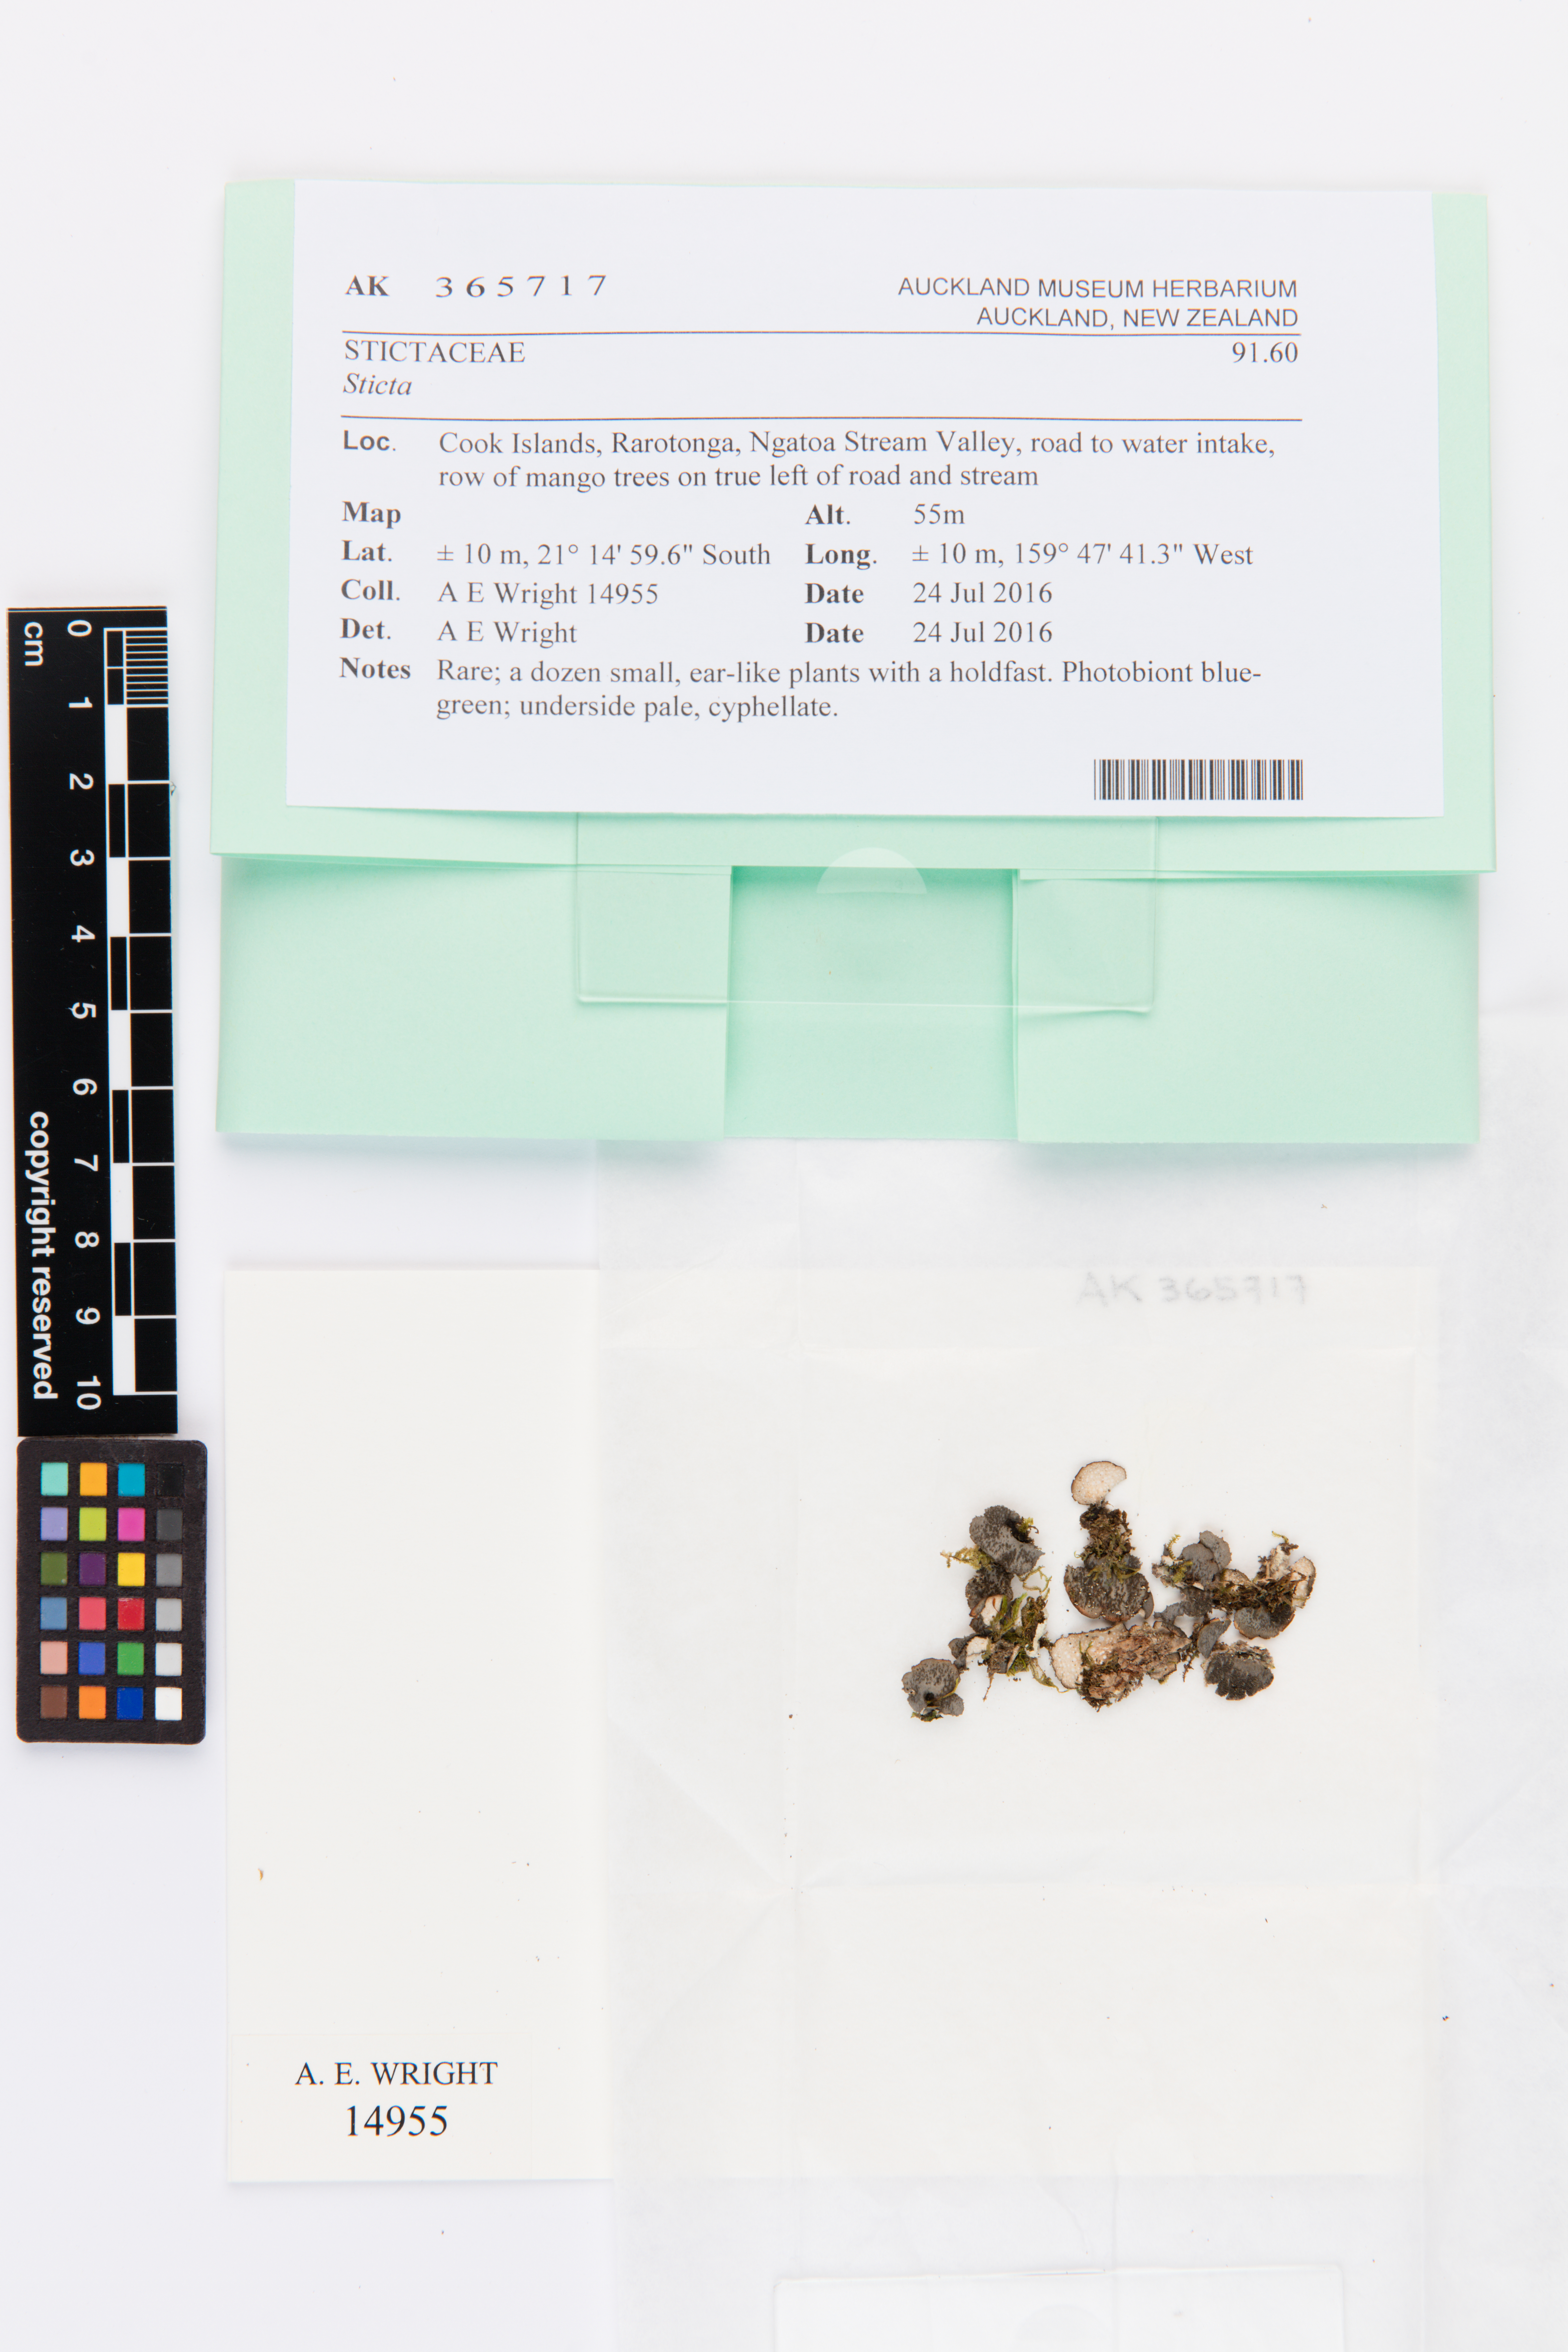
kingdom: Fungi
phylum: Ascomycota
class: Lecanoromycetes
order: Peltigerales
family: Lobariaceae
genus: Sticta
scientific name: Sticta
